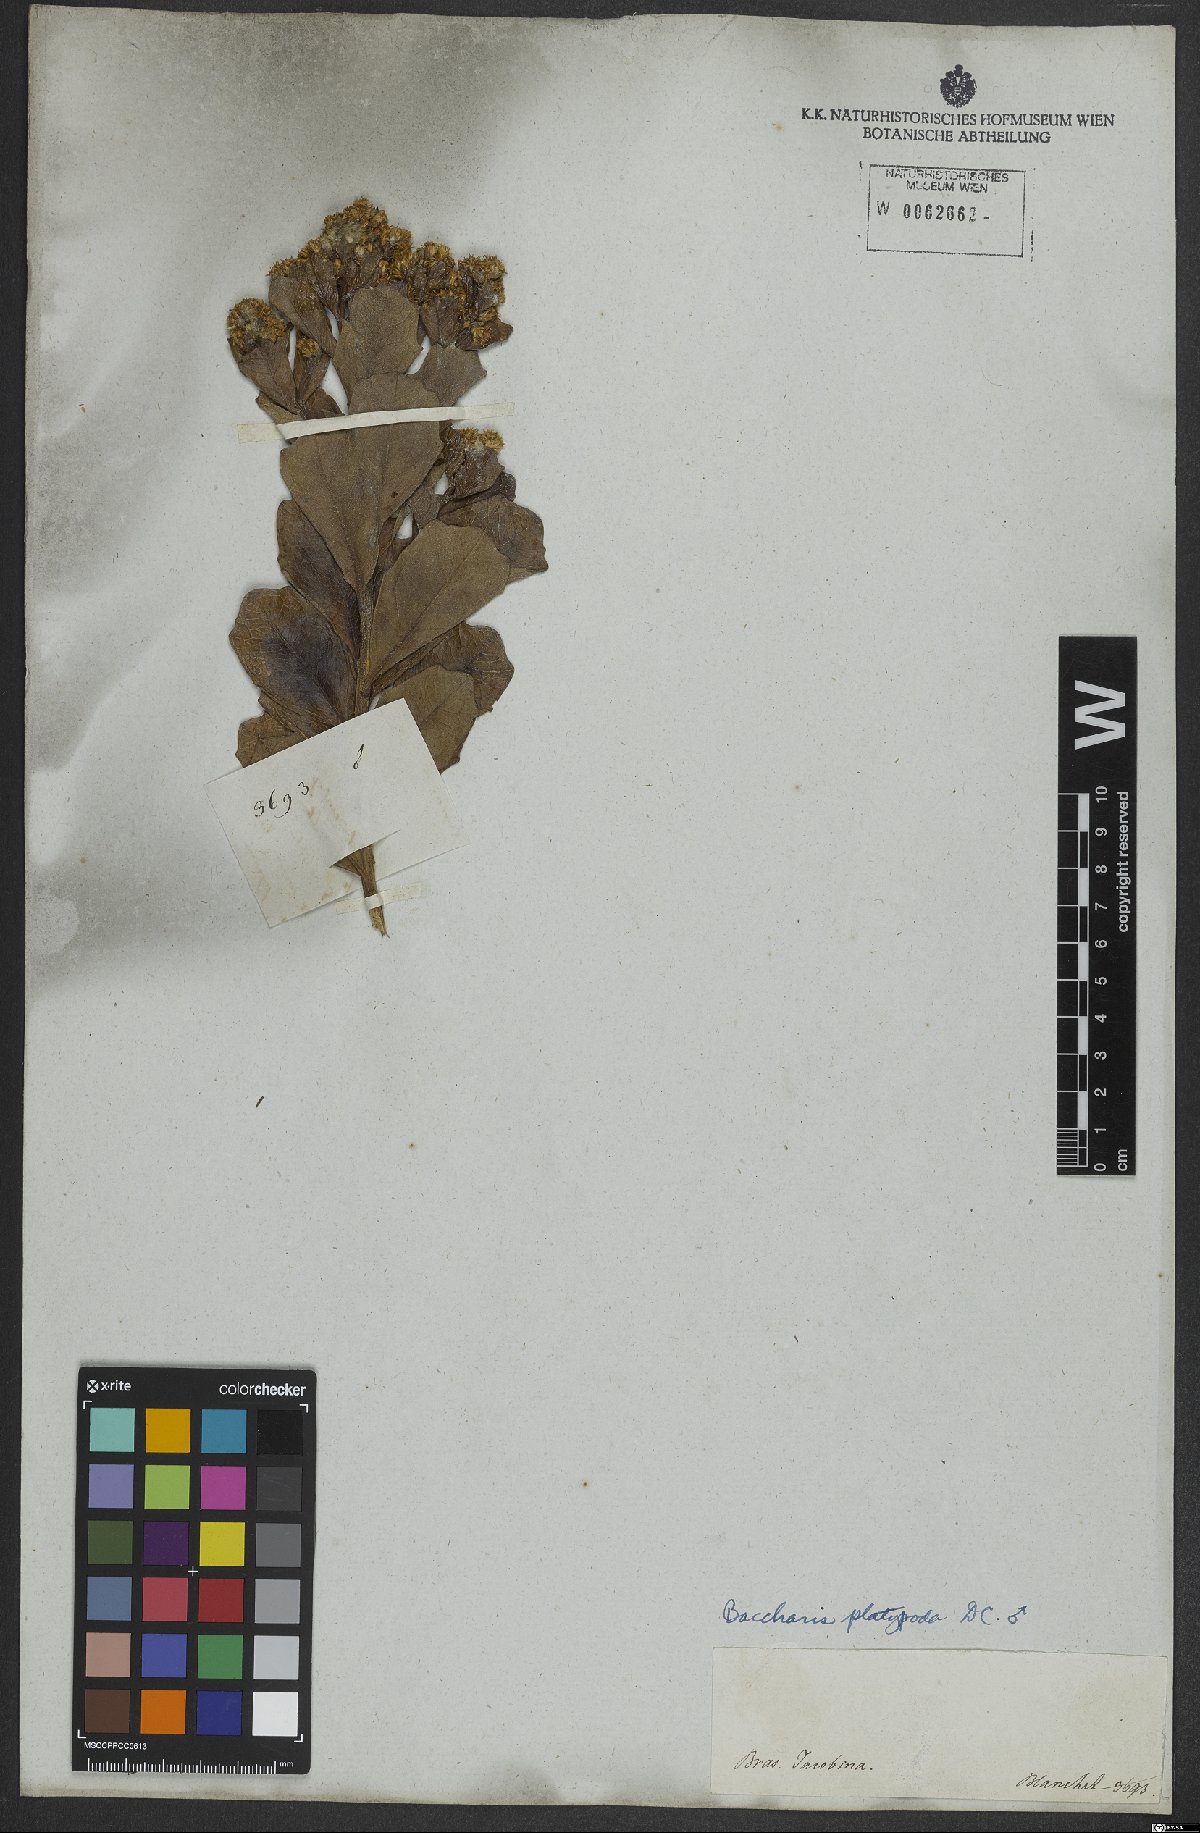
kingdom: Plantae
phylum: Tracheophyta
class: Magnoliopsida
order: Asterales
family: Asteraceae
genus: Baccharis
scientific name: Baccharis platypoda
